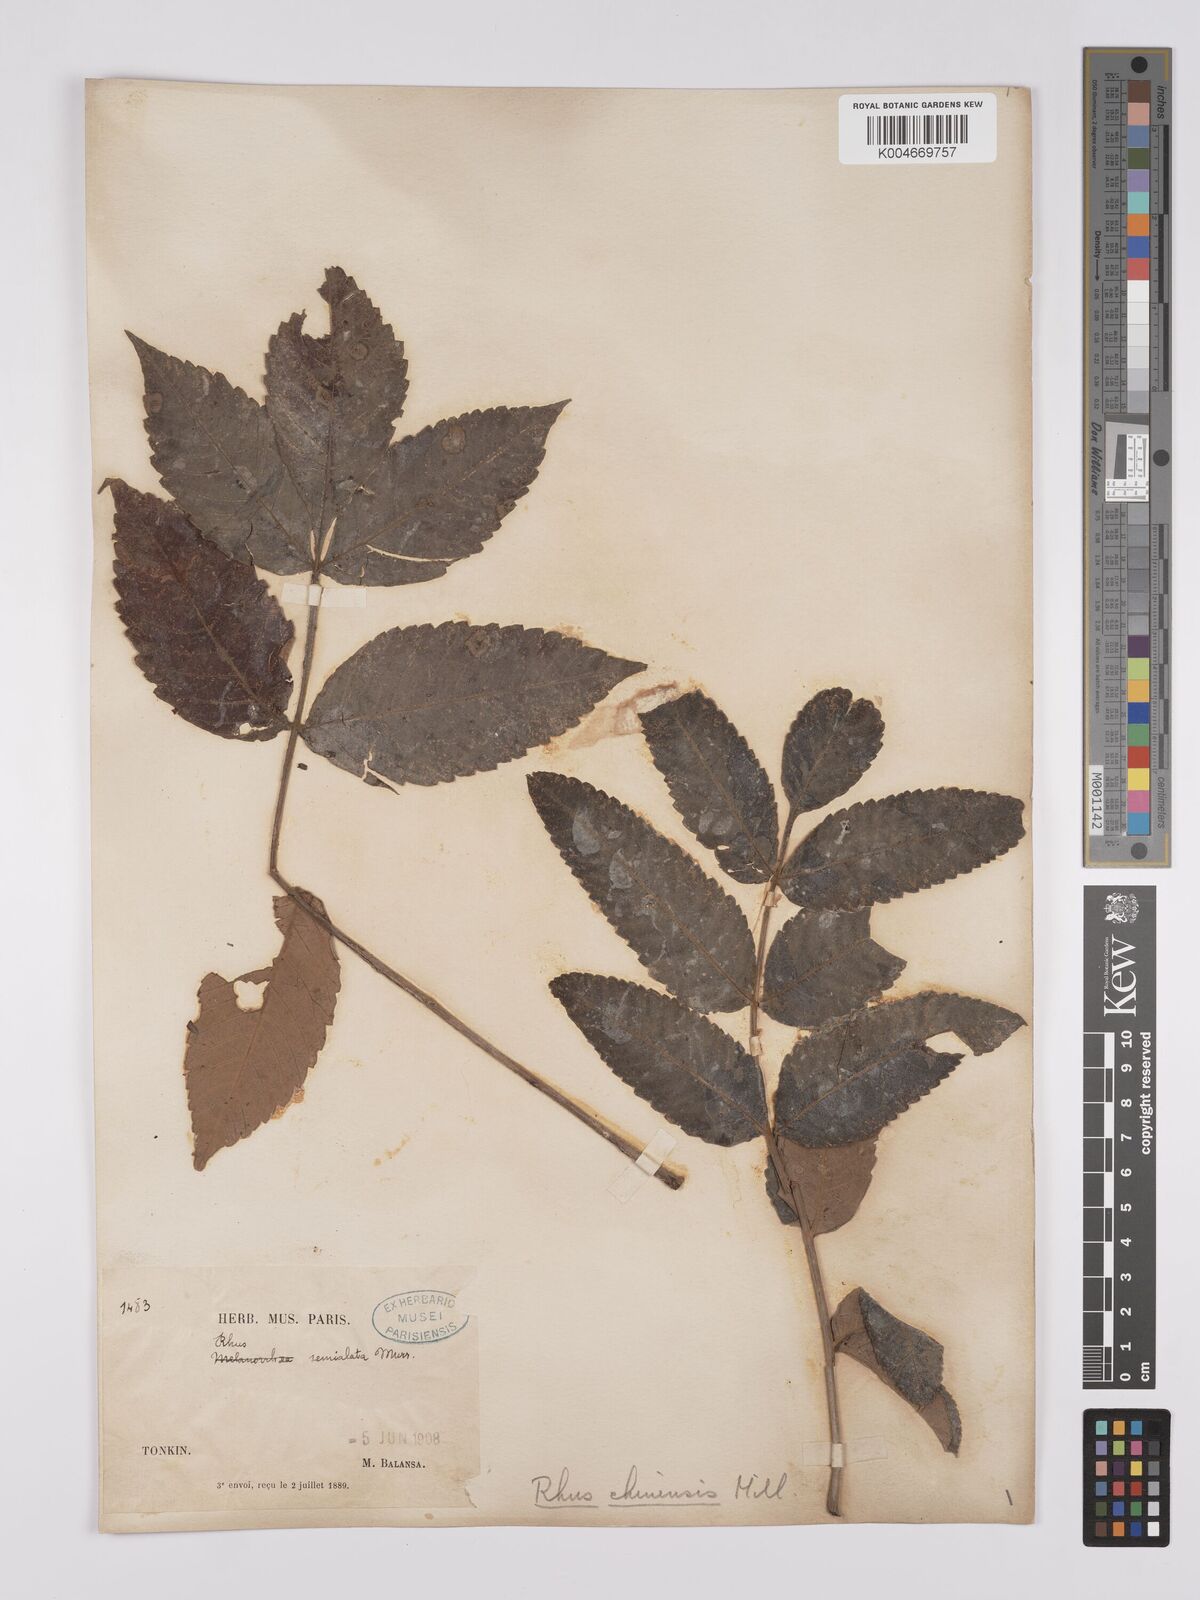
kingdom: Plantae
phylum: Tracheophyta
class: Magnoliopsida
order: Sapindales
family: Anacardiaceae
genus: Rhus
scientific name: Rhus chinensis
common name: Chinese gall
